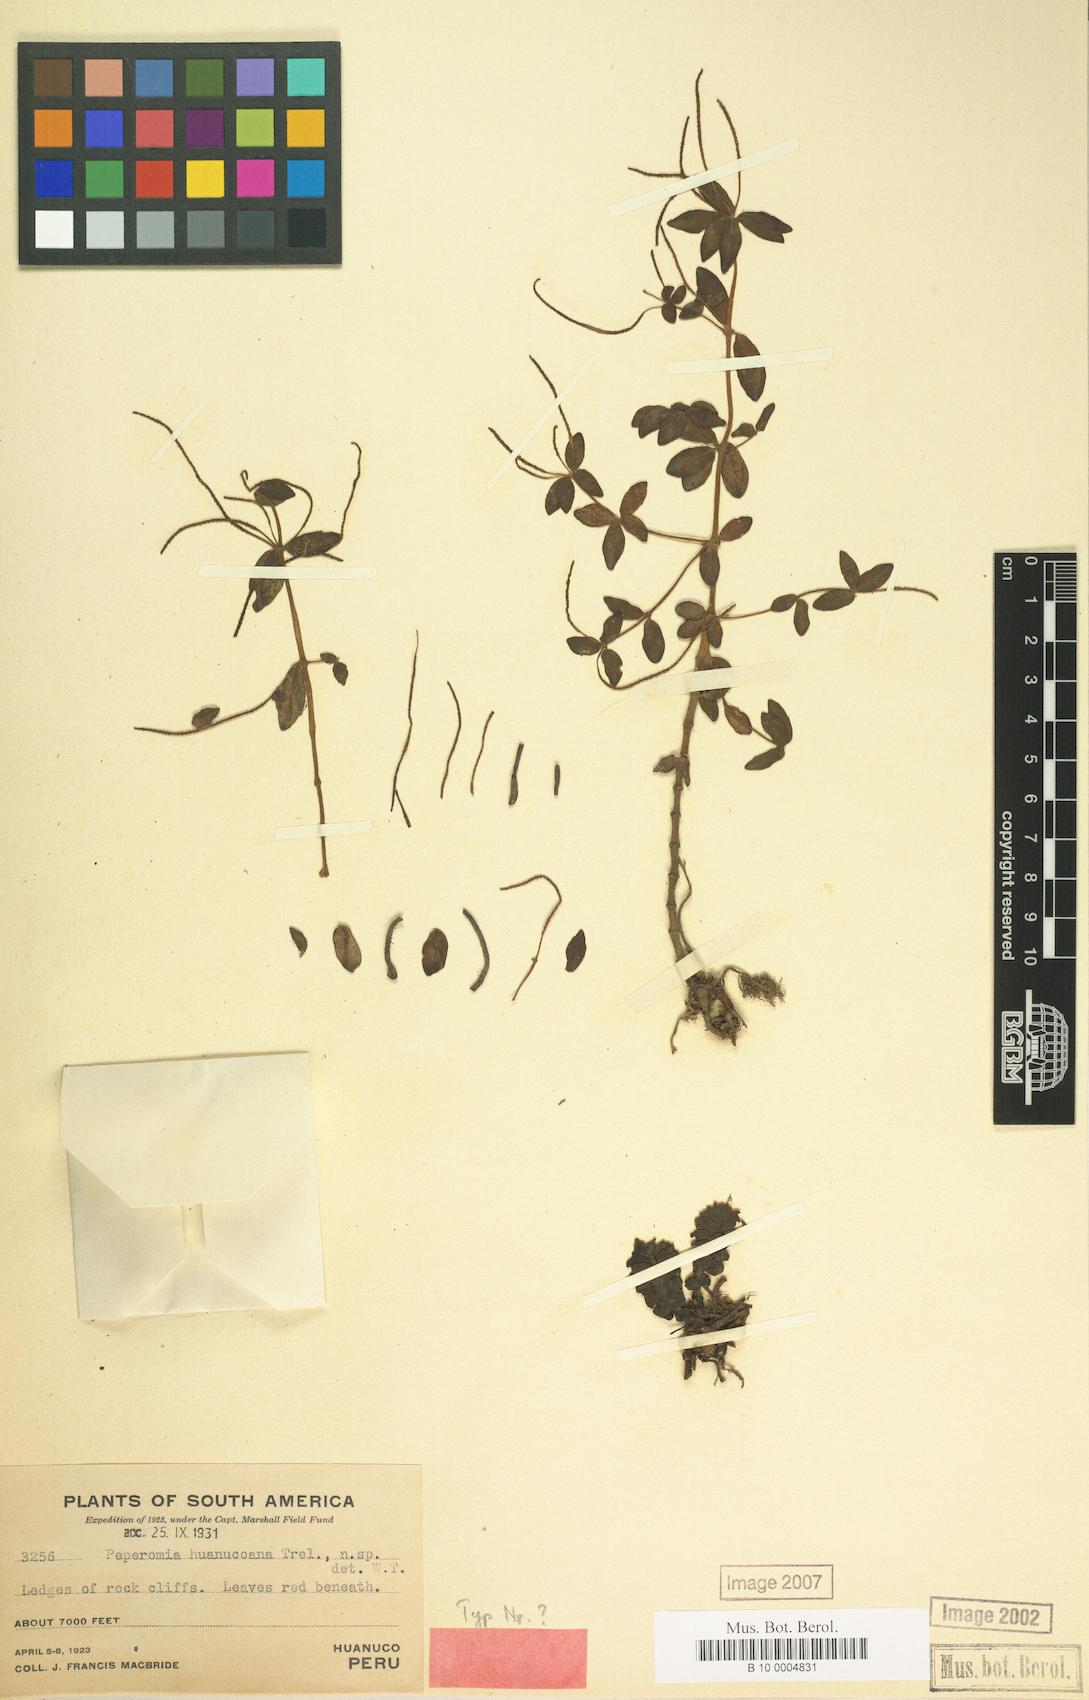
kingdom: Plantae
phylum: Tracheophyta
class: Magnoliopsida
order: Piperales
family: Piperaceae
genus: Peperomia
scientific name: Peperomia huanucoana
